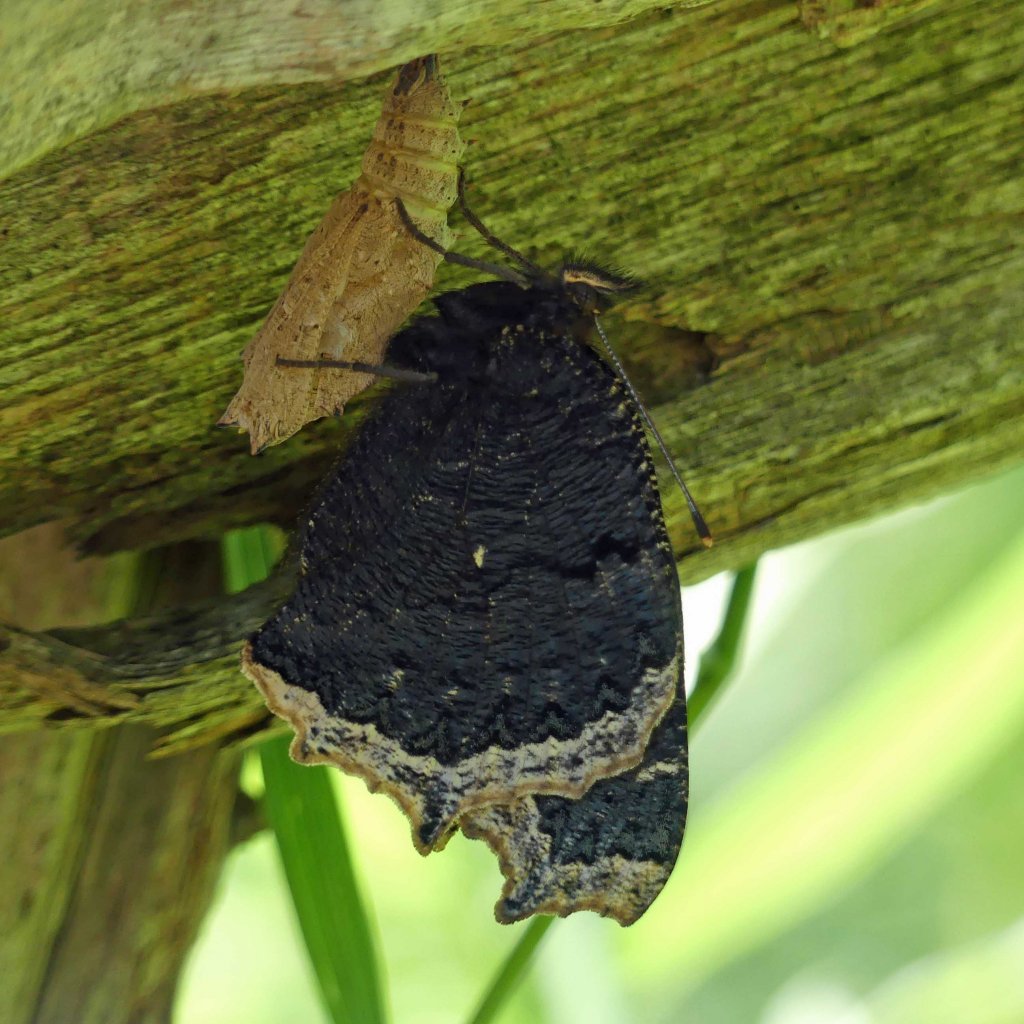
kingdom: Animalia
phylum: Arthropoda
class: Insecta
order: Lepidoptera
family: Nymphalidae
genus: Nymphalis
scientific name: Nymphalis antiopa
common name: Mourning Cloak
